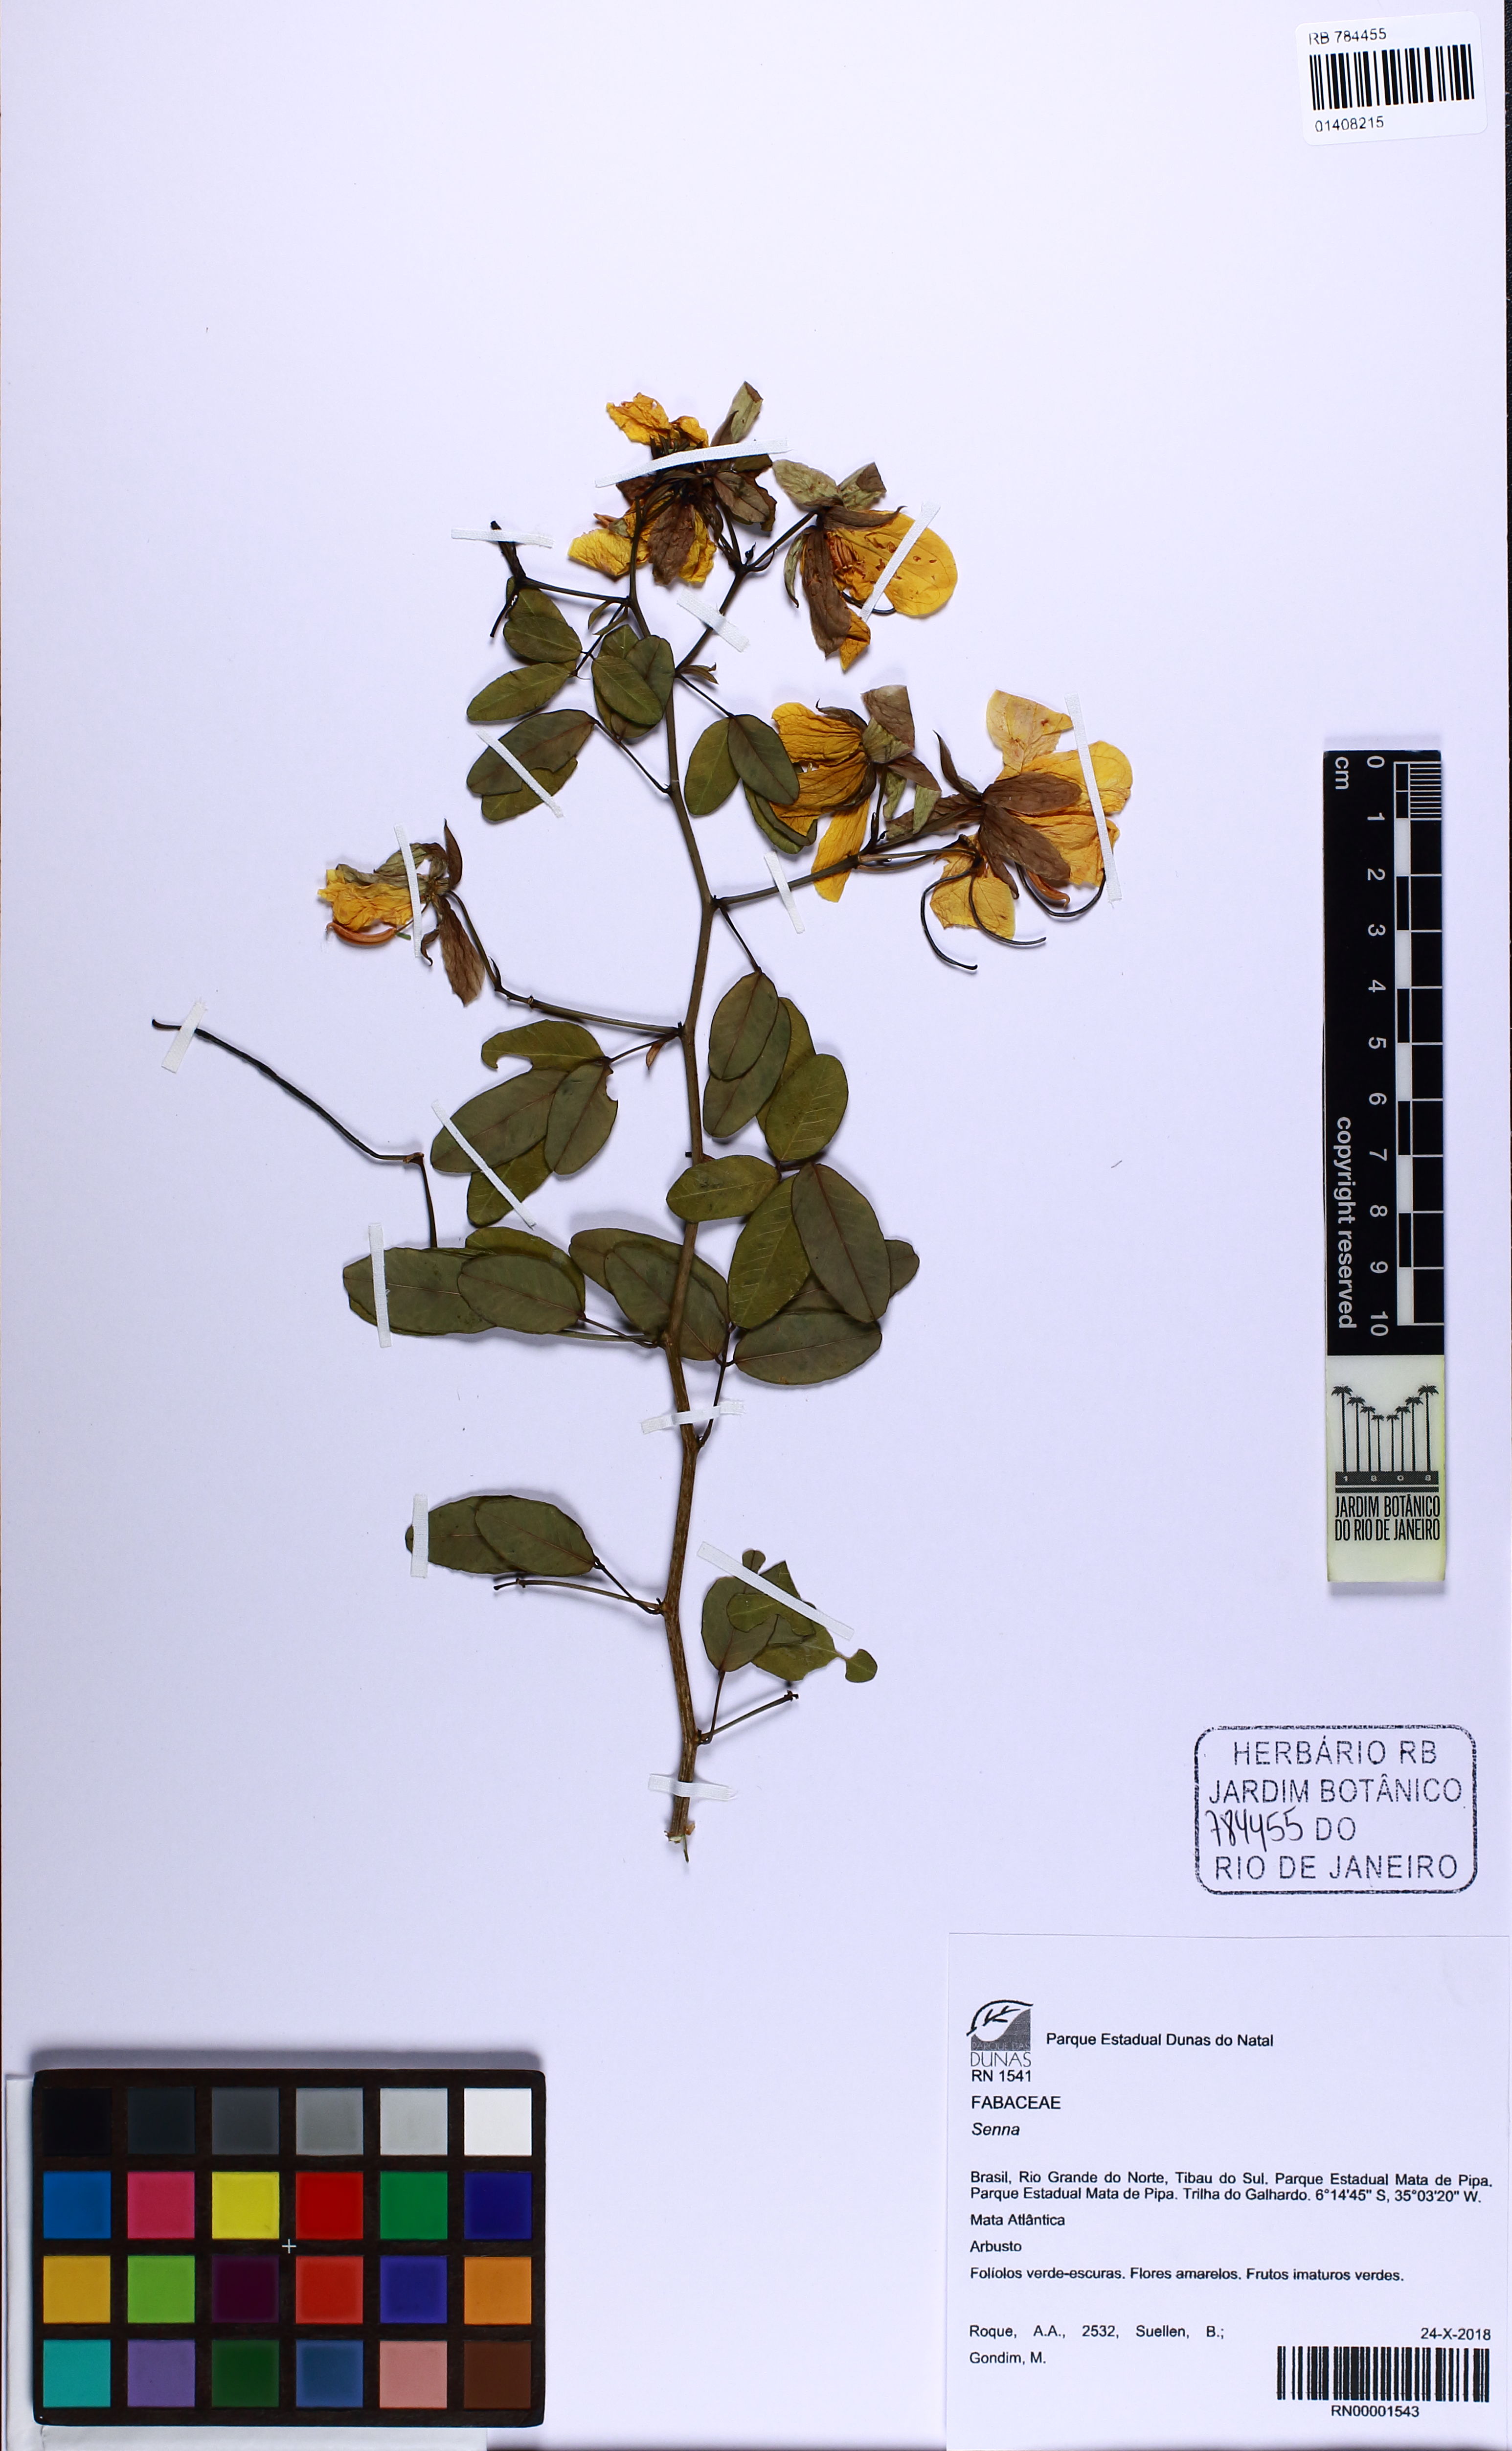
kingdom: Plantae
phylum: Tracheophyta
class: Magnoliopsida
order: Fabales
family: Fabaceae
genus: Senna
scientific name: Senna splendida
